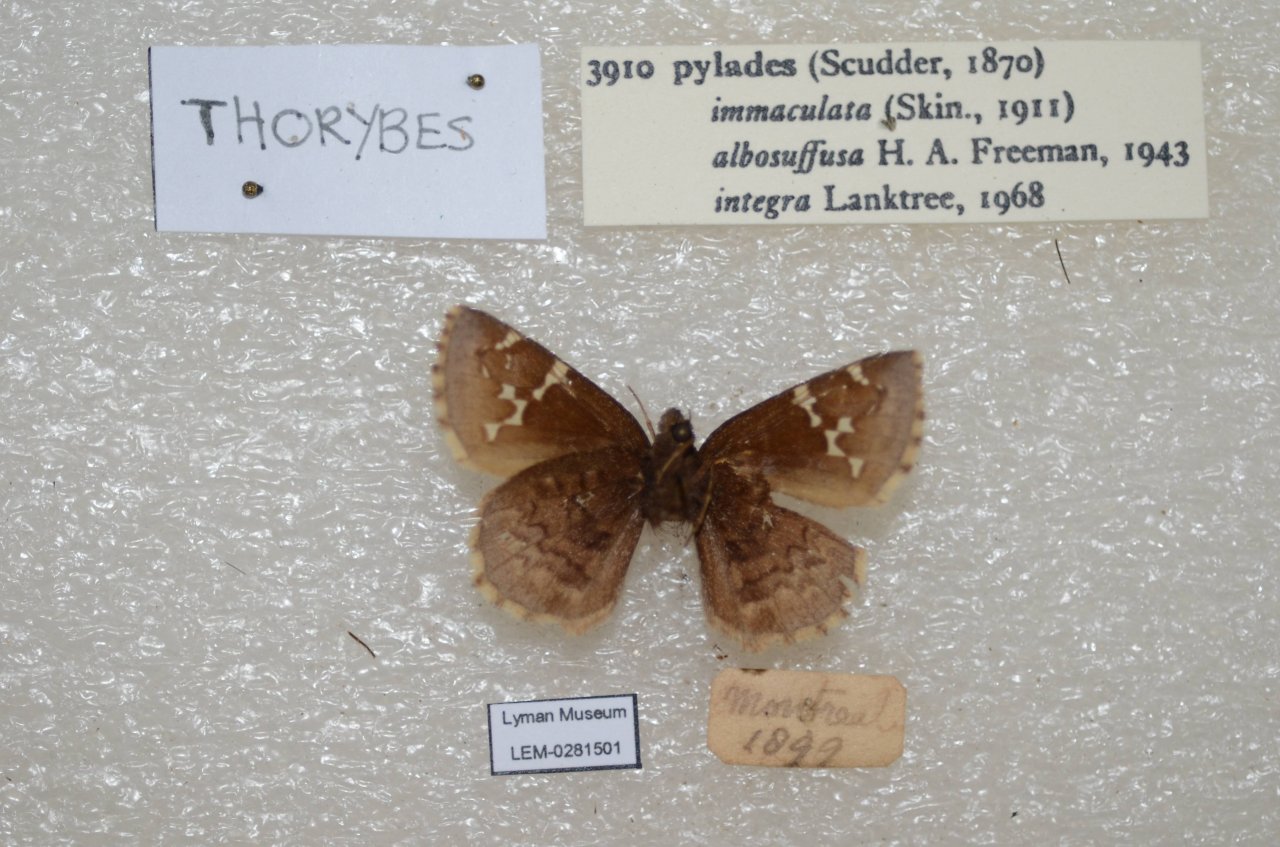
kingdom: Animalia
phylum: Arthropoda
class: Insecta
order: Lepidoptera
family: Hesperiidae
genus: Autochton
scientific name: Autochton
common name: Northern Cloudywing
